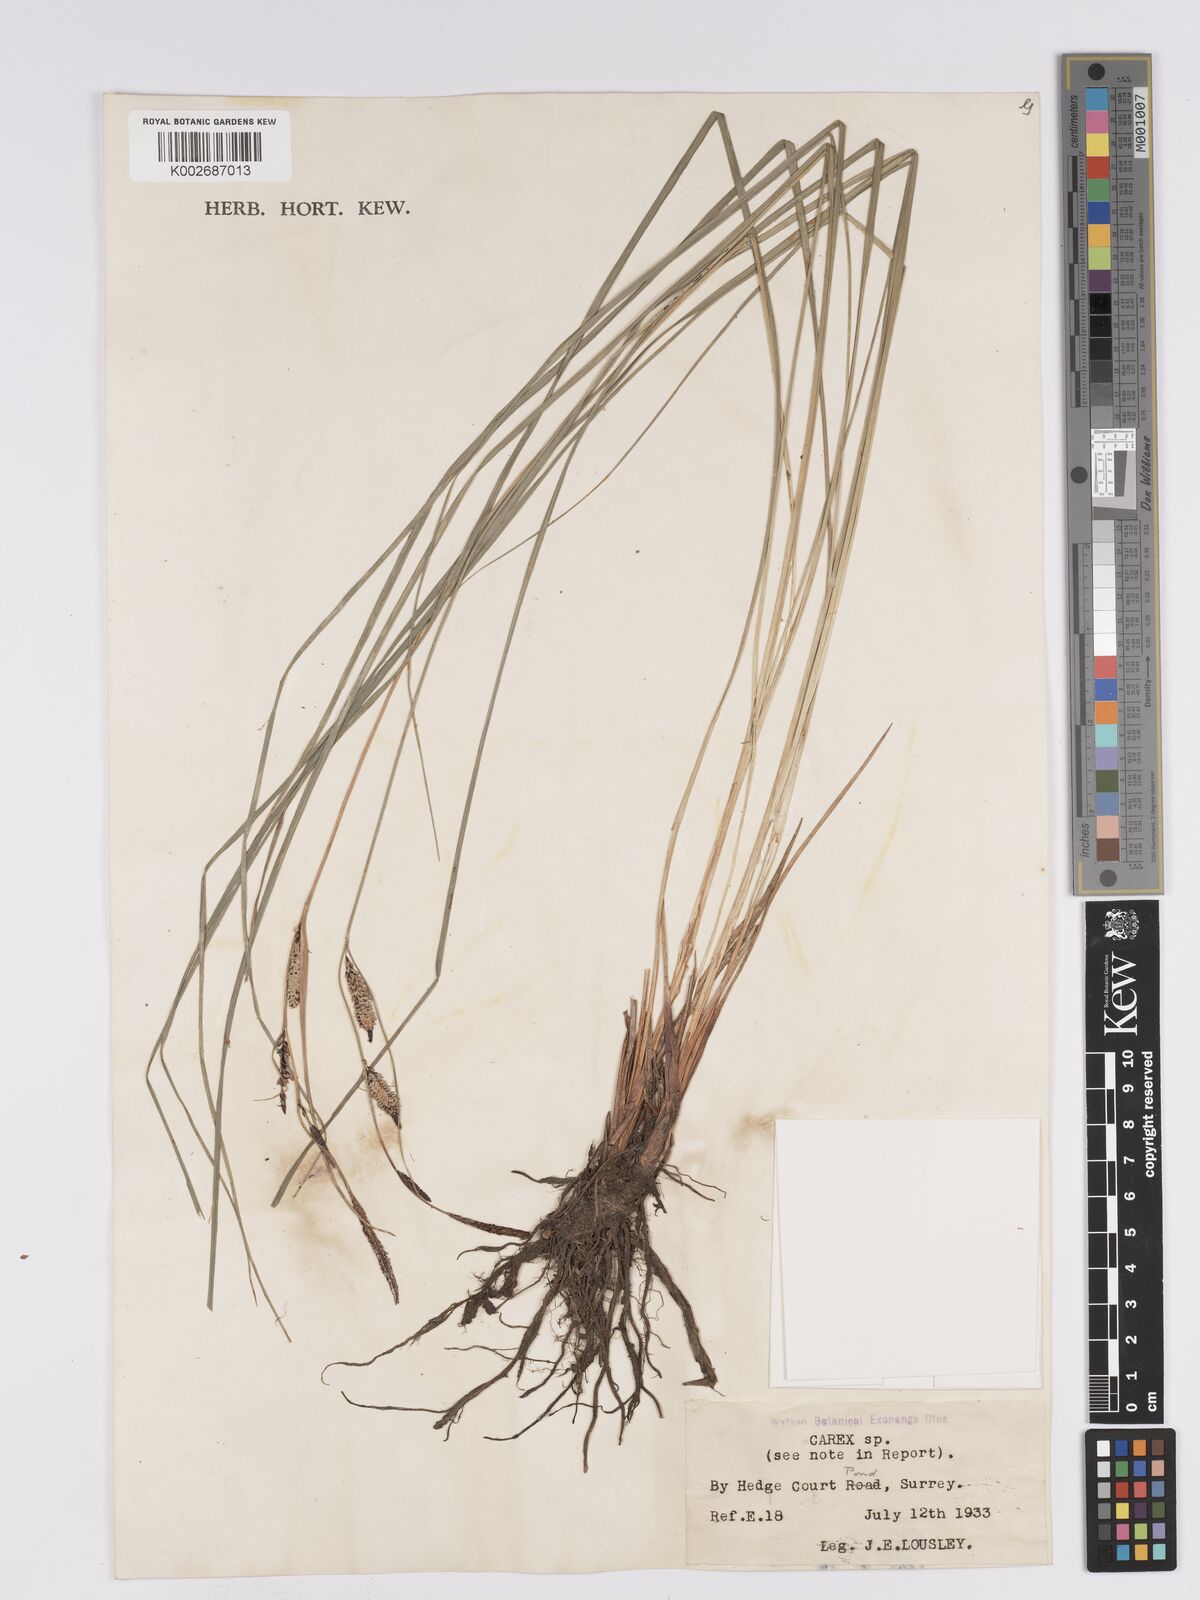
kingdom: Plantae
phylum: Tracheophyta
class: Liliopsida
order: Poales
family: Cyperaceae
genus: Carex
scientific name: Carex nigra
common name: Common sedge
